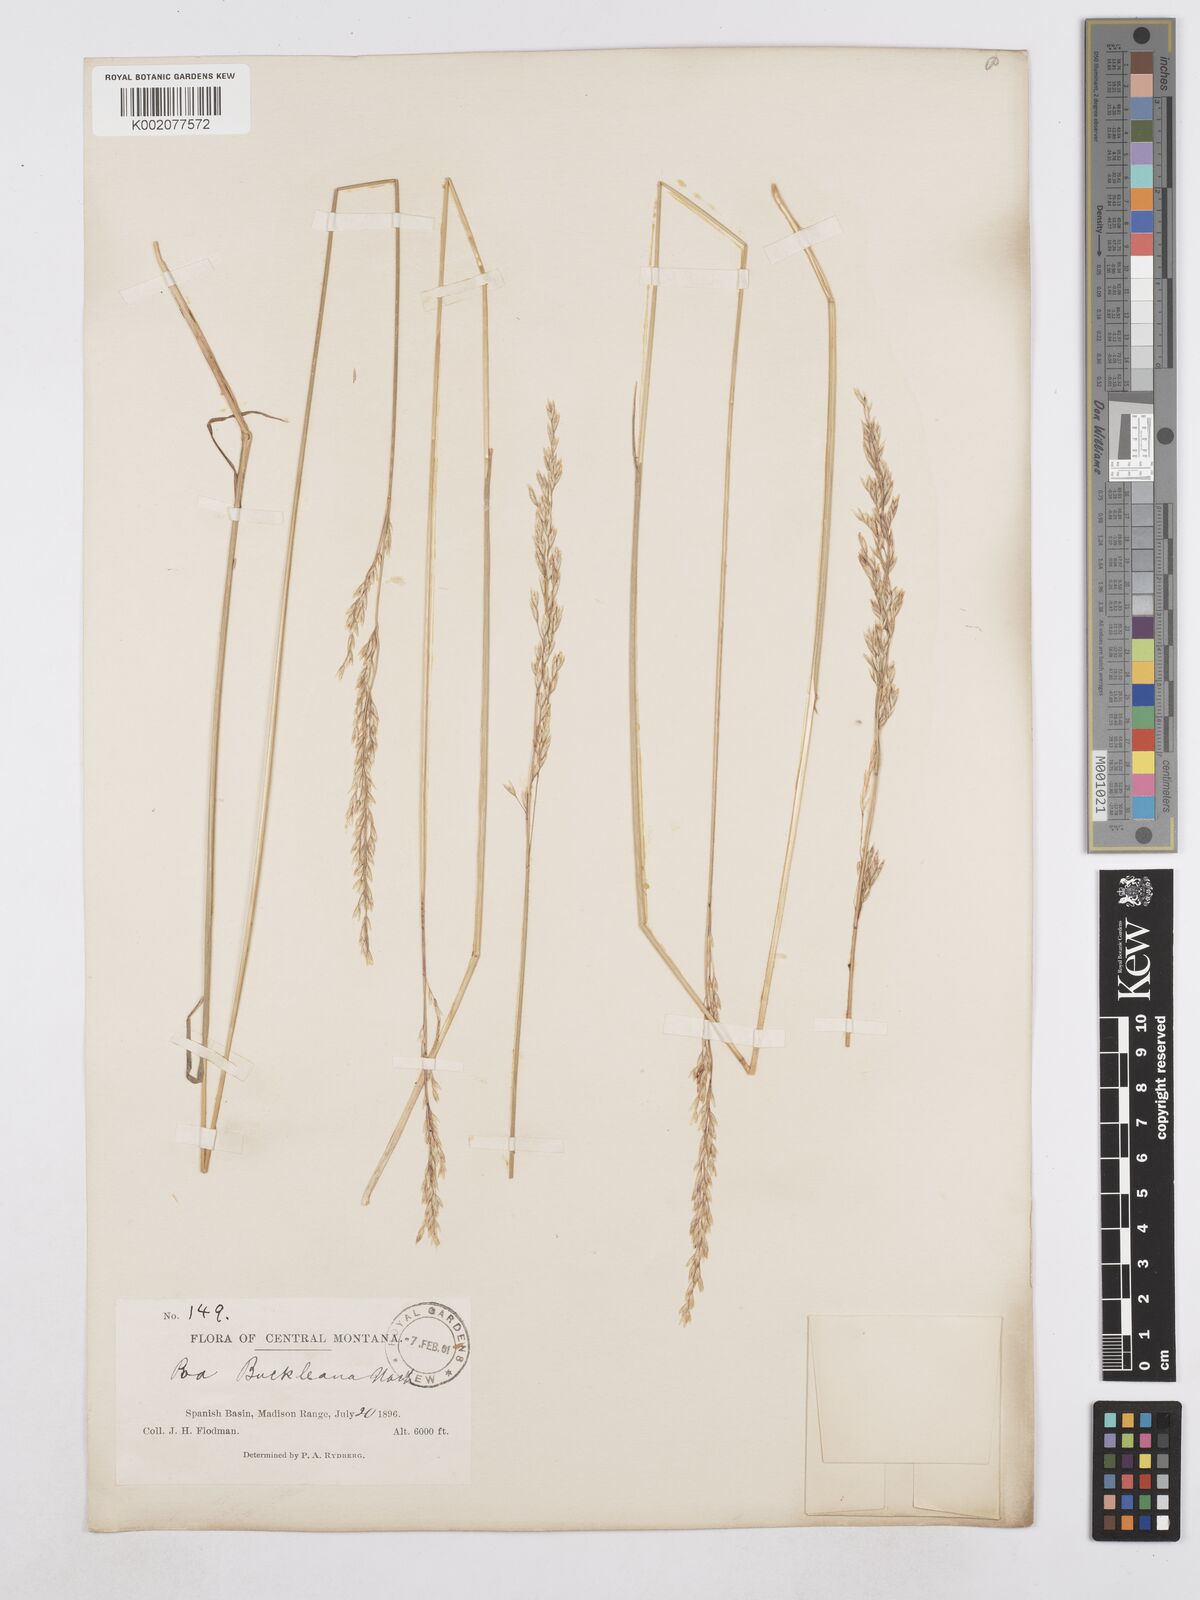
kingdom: Plantae
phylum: Tracheophyta
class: Liliopsida
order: Poales
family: Poaceae
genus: Poa
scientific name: Poa secunda
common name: Sandberg bluegrass
